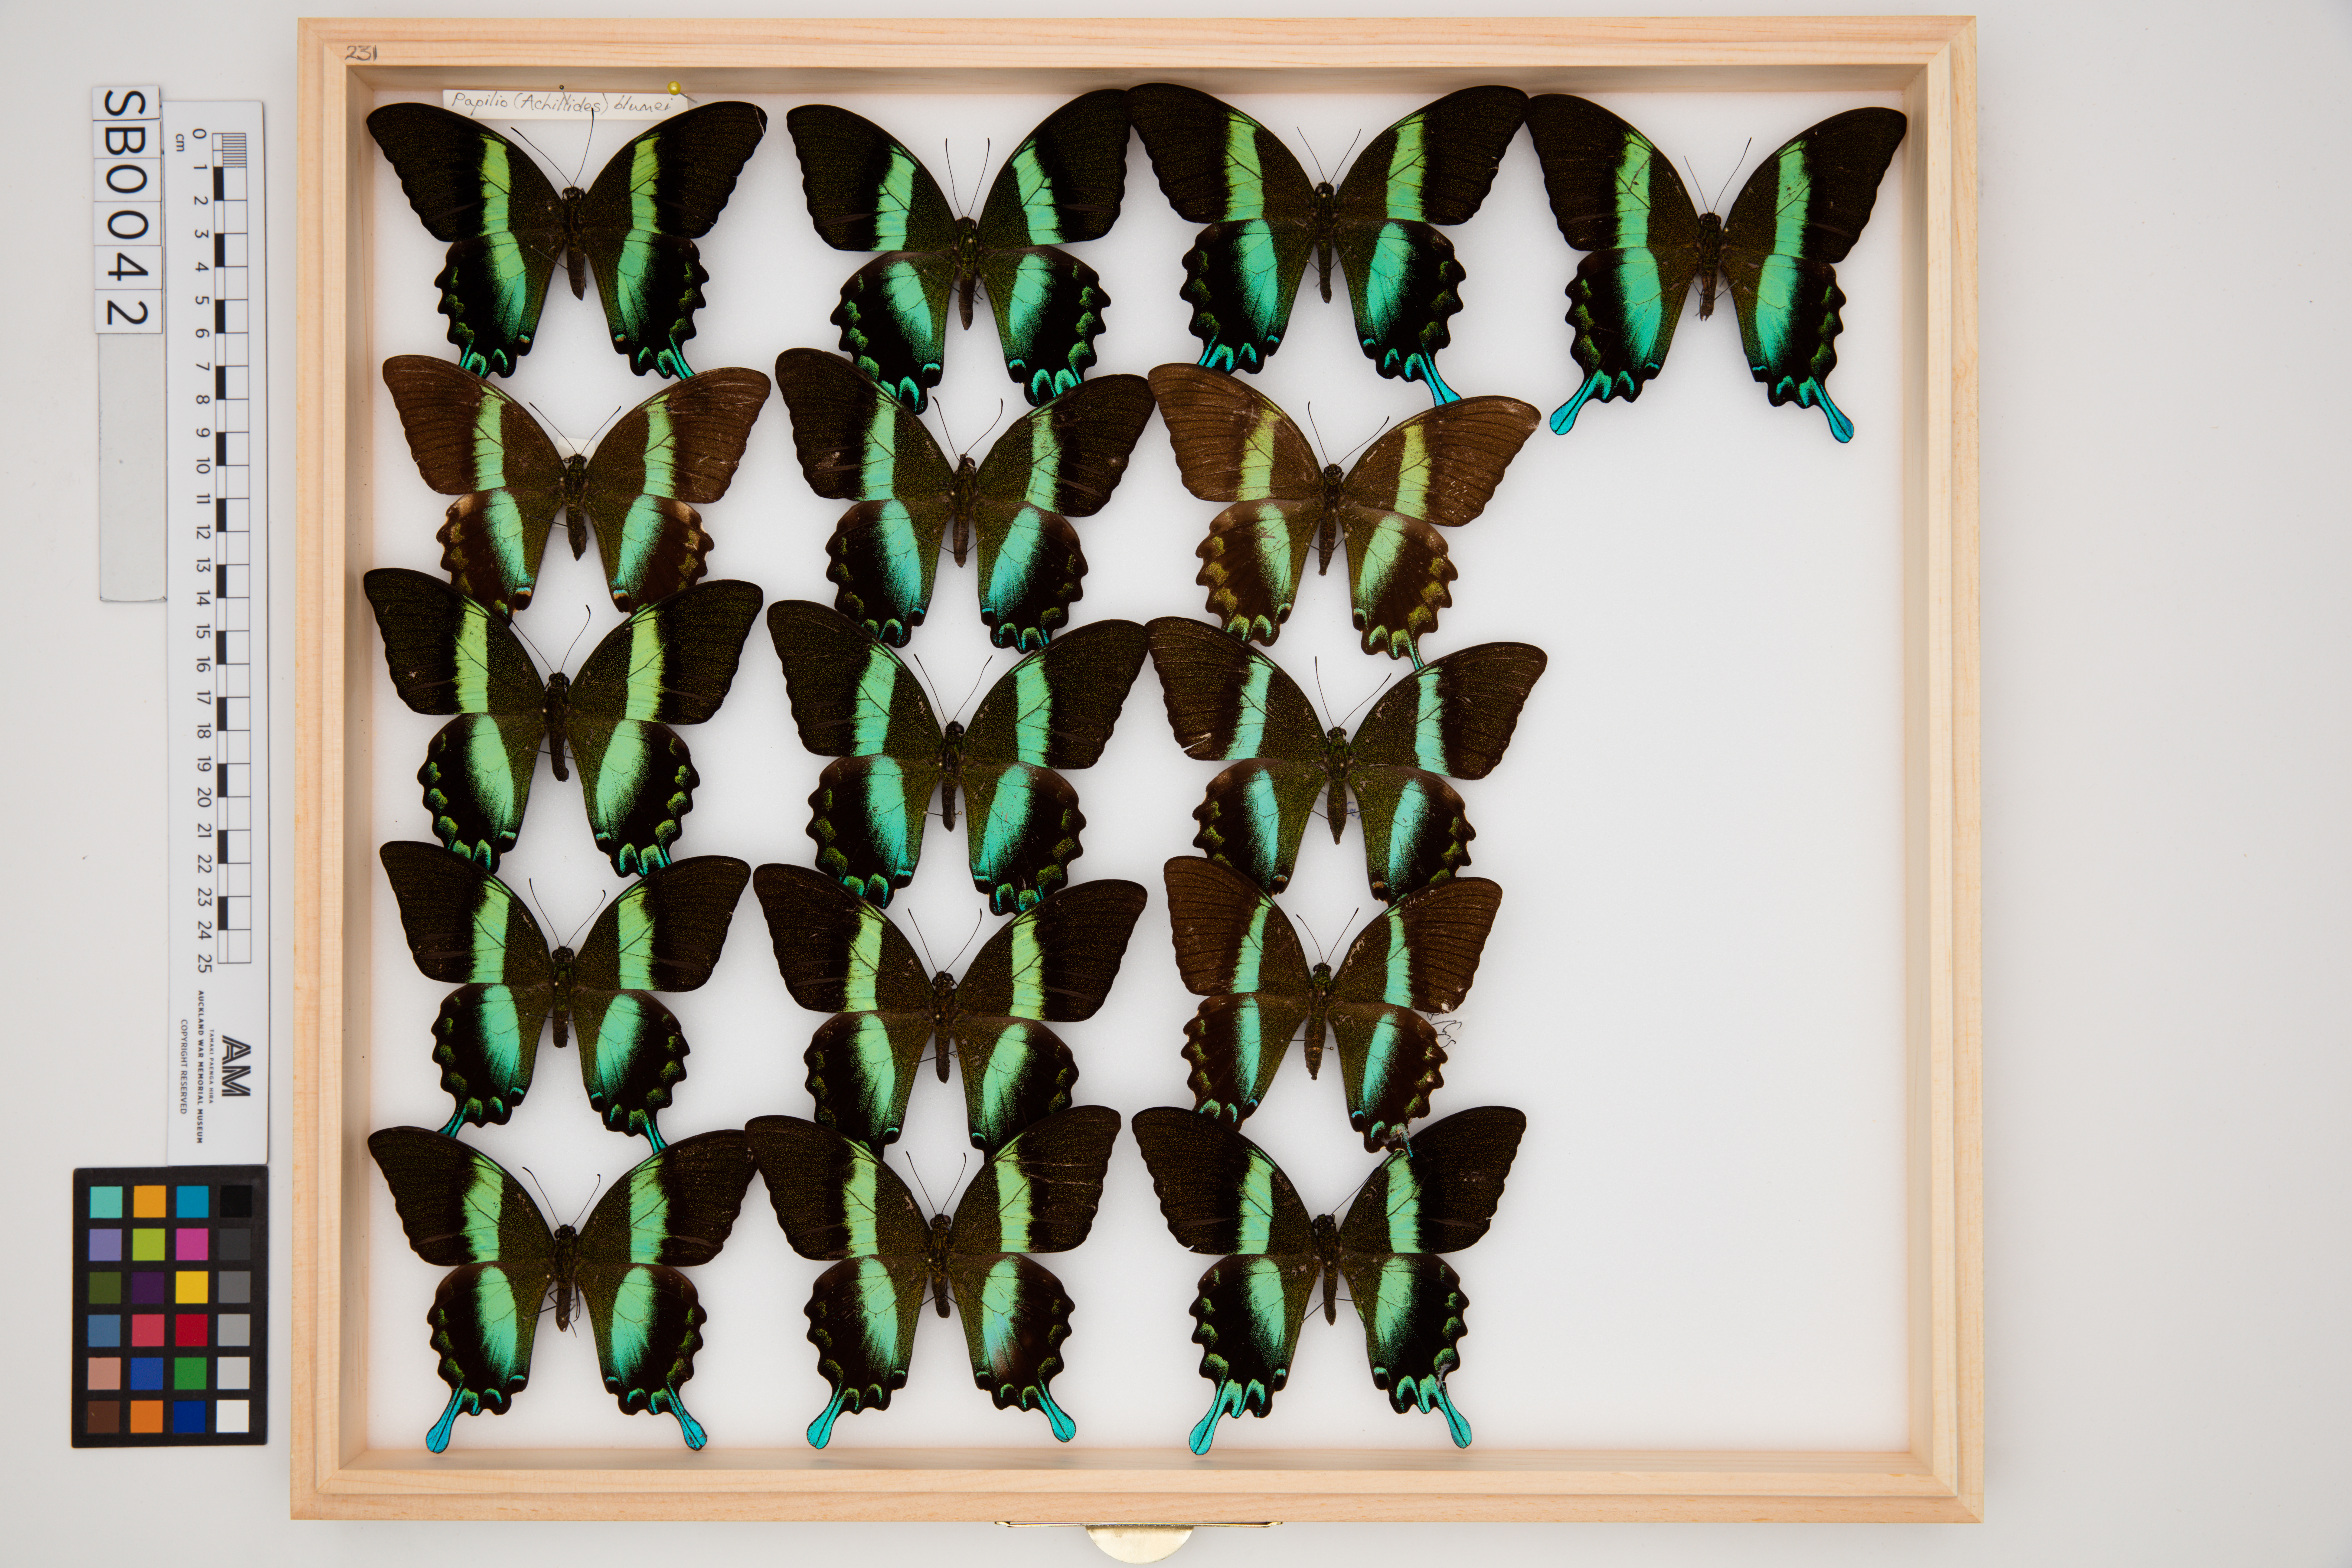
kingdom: Animalia
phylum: Arthropoda
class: Insecta
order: Lepidoptera
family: Papilionidae
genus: Papilio
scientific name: Papilio blumei
